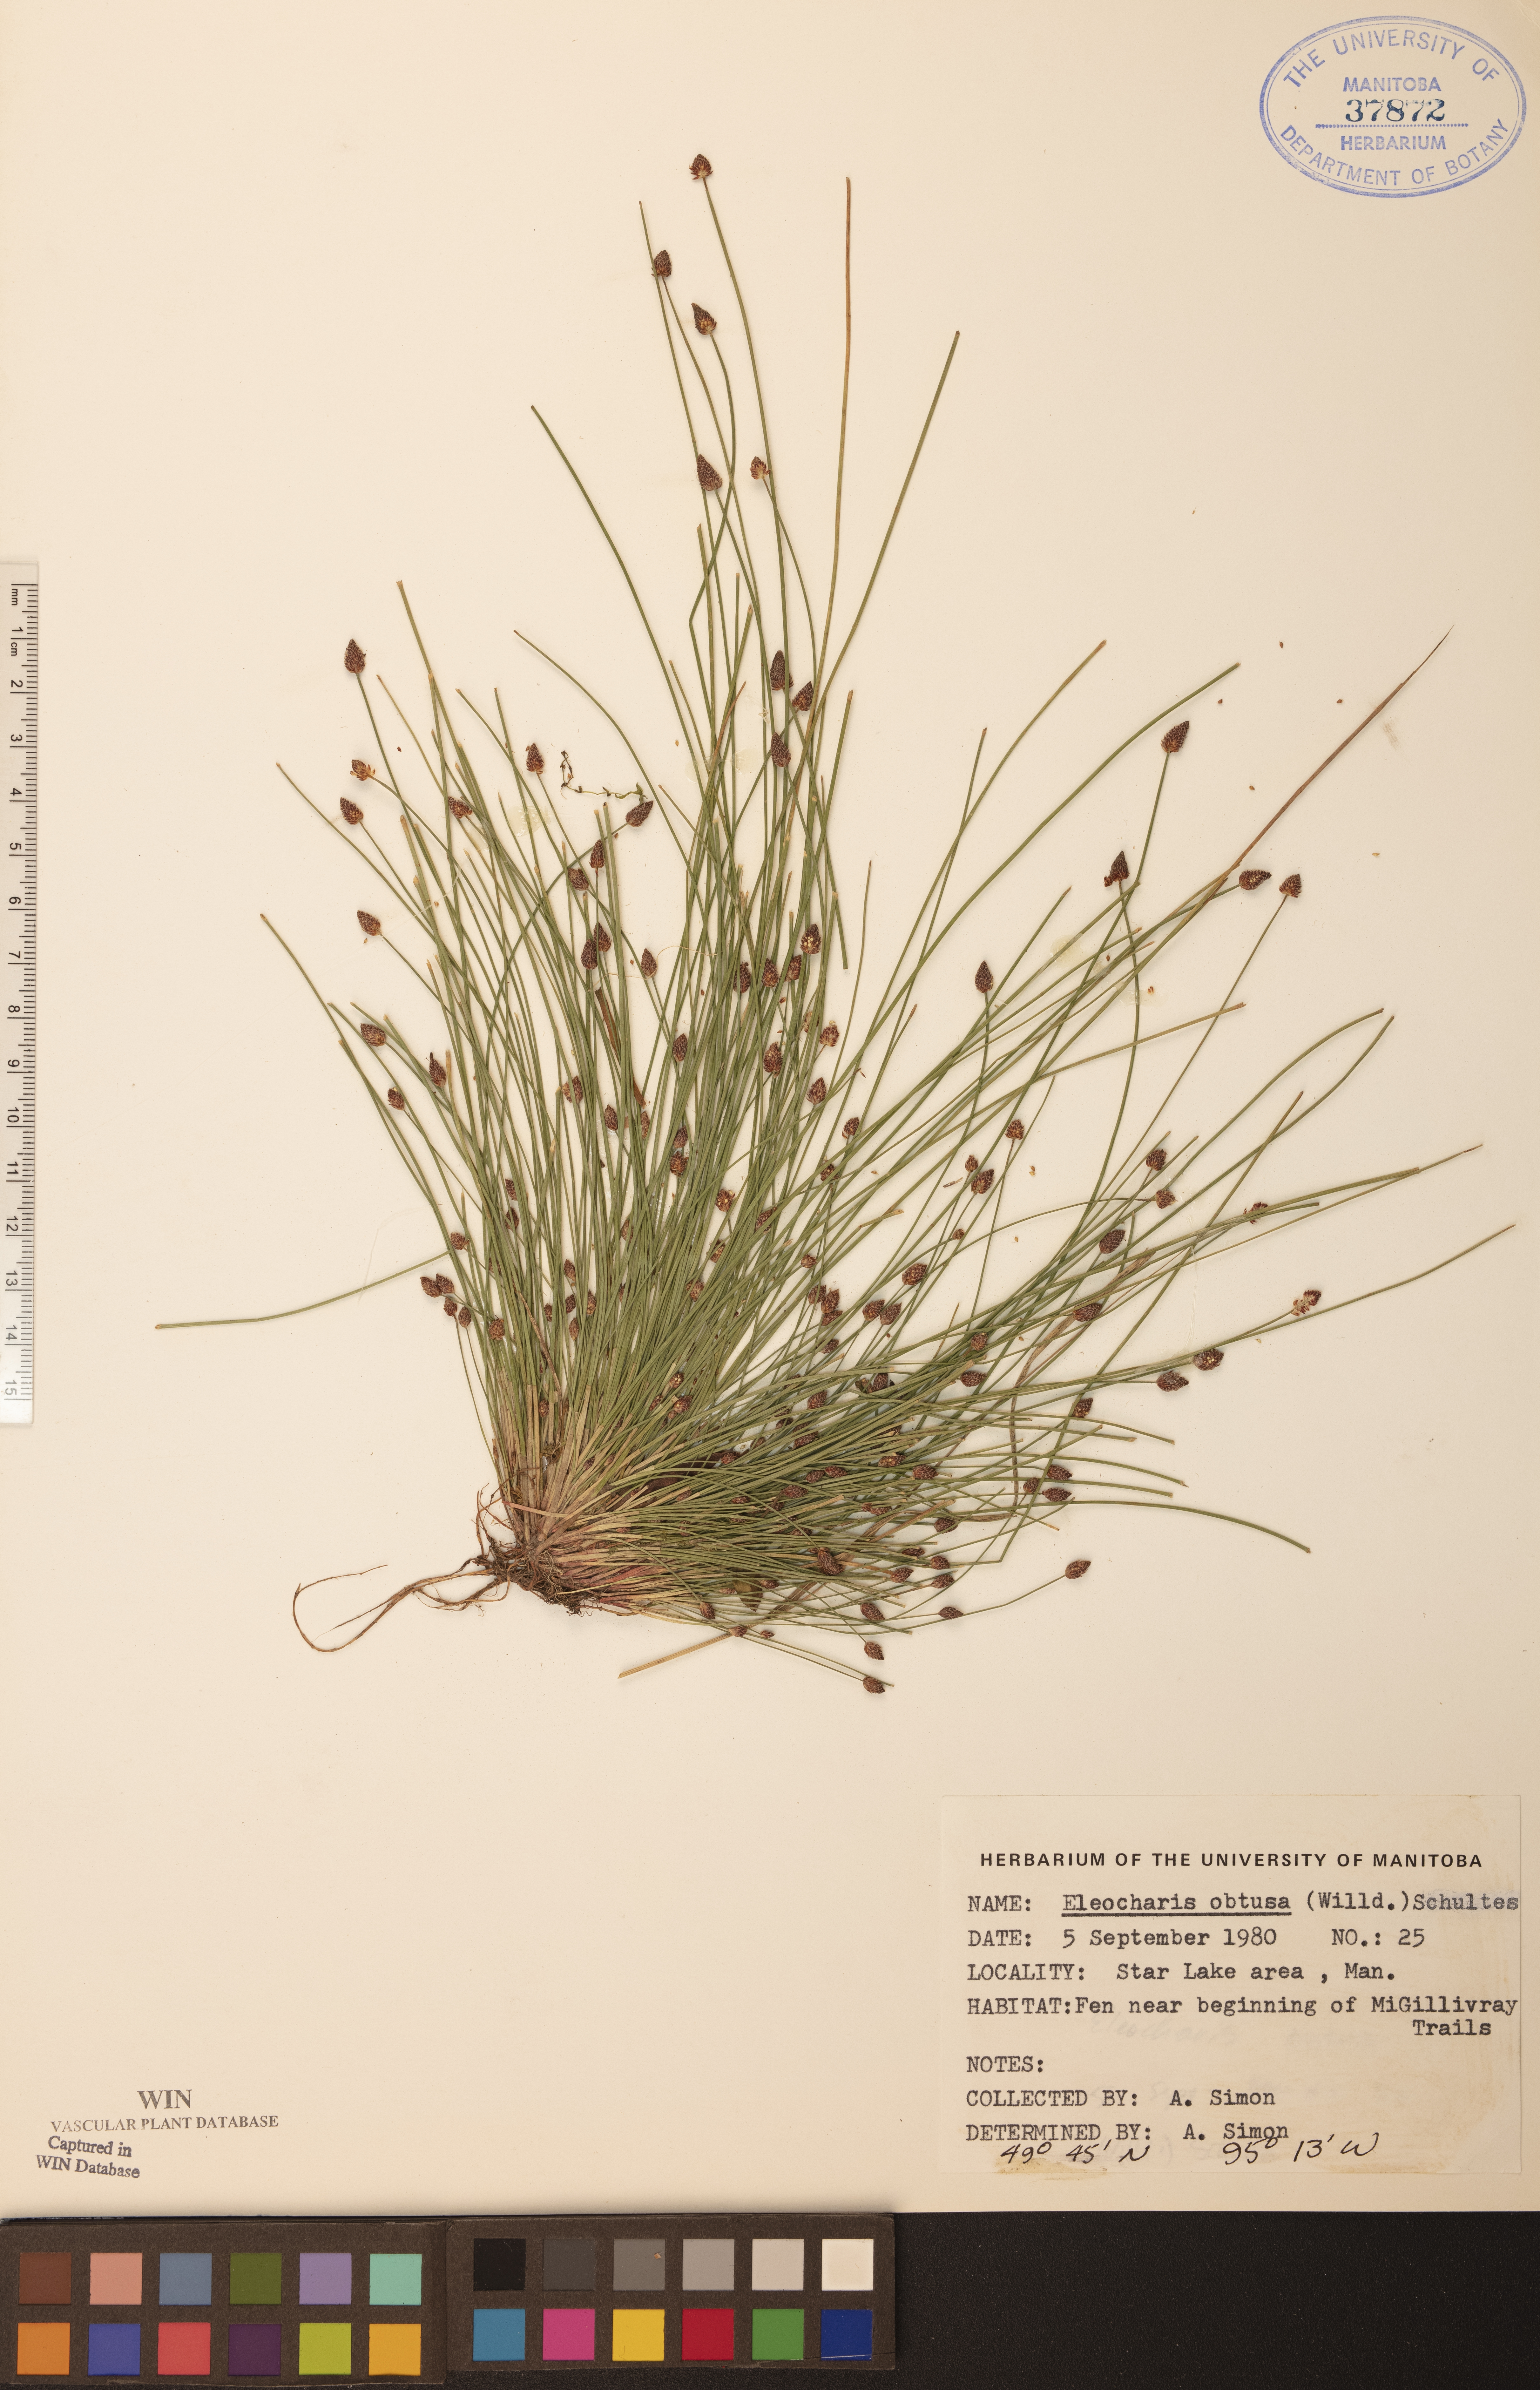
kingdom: Plantae
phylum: Tracheophyta
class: Liliopsida
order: Poales
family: Cyperaceae
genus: Eleocharis
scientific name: Eleocharis obtusa
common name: Blunt spikerush
